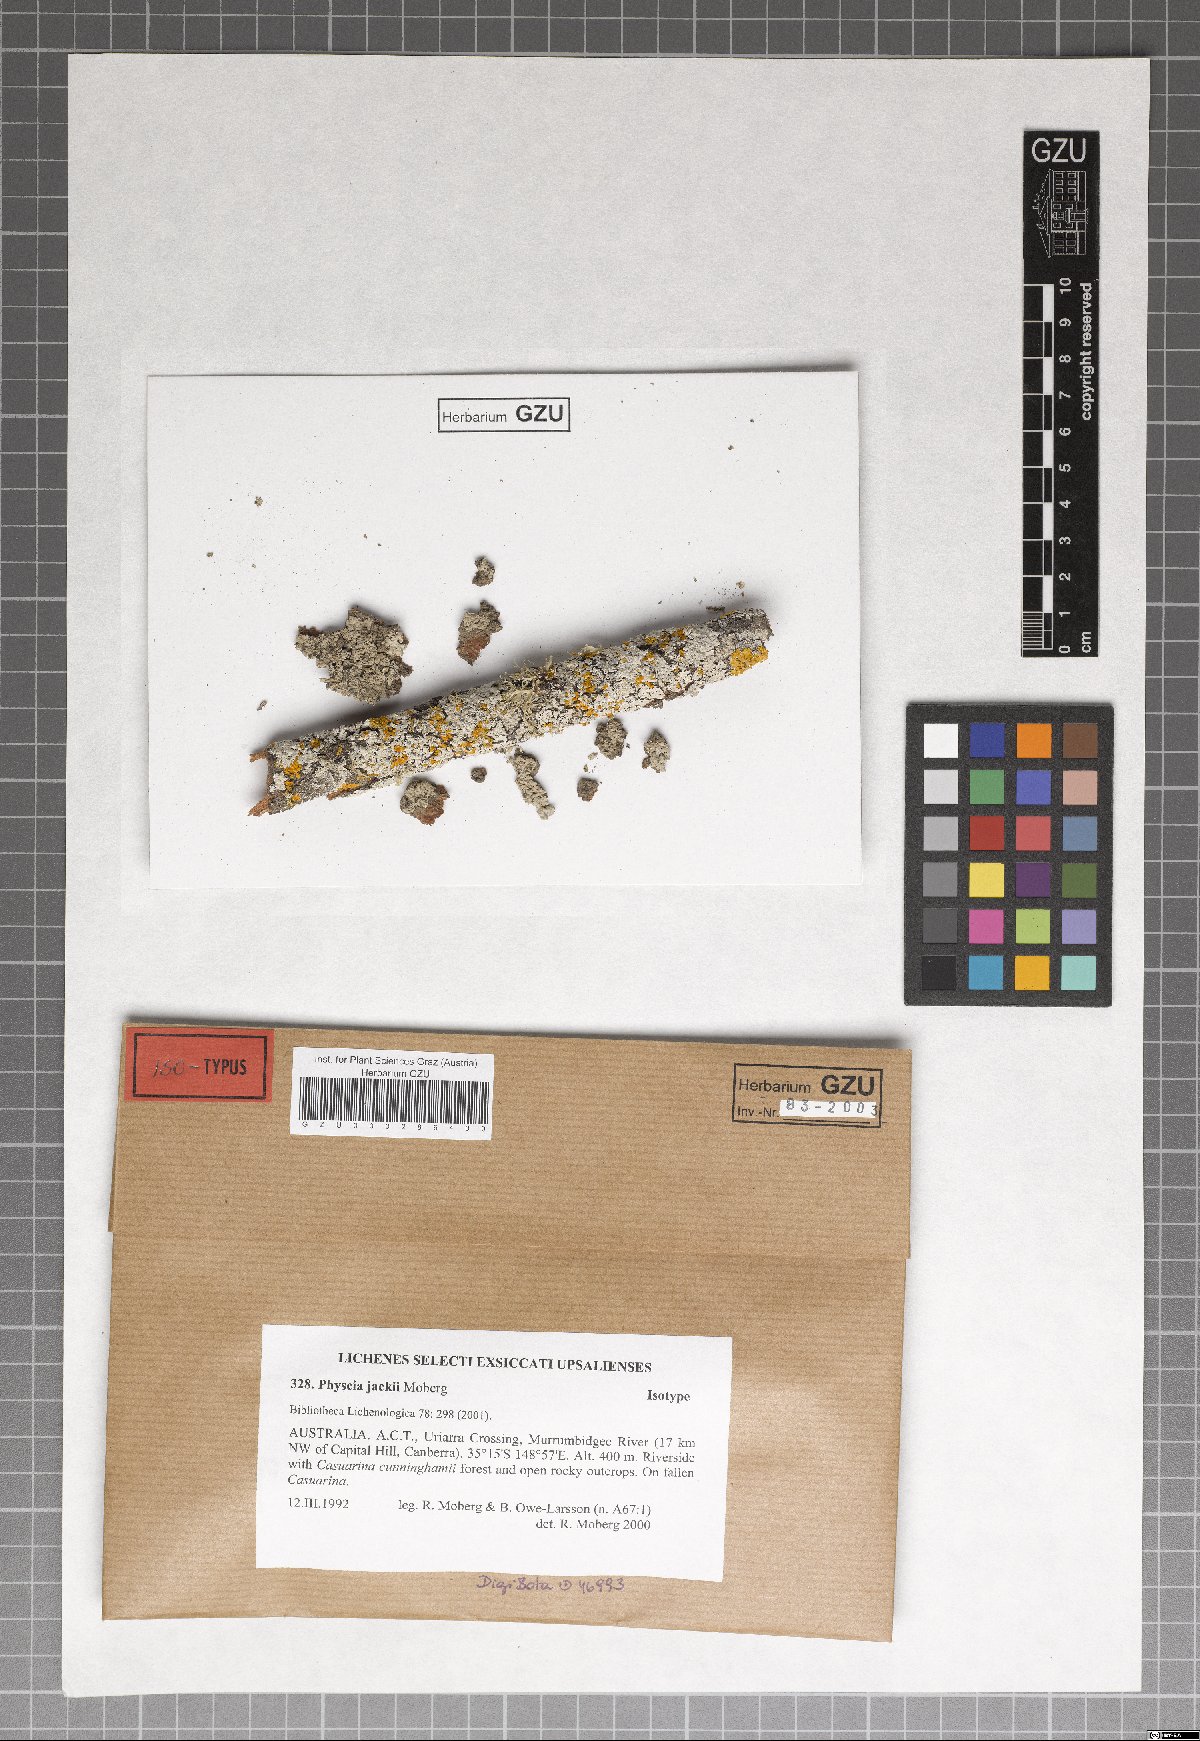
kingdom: Fungi
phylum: Ascomycota
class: Lecanoromycetes
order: Caliciales
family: Physciaceae
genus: Kashiwadia
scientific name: Kashiwadia jackii
